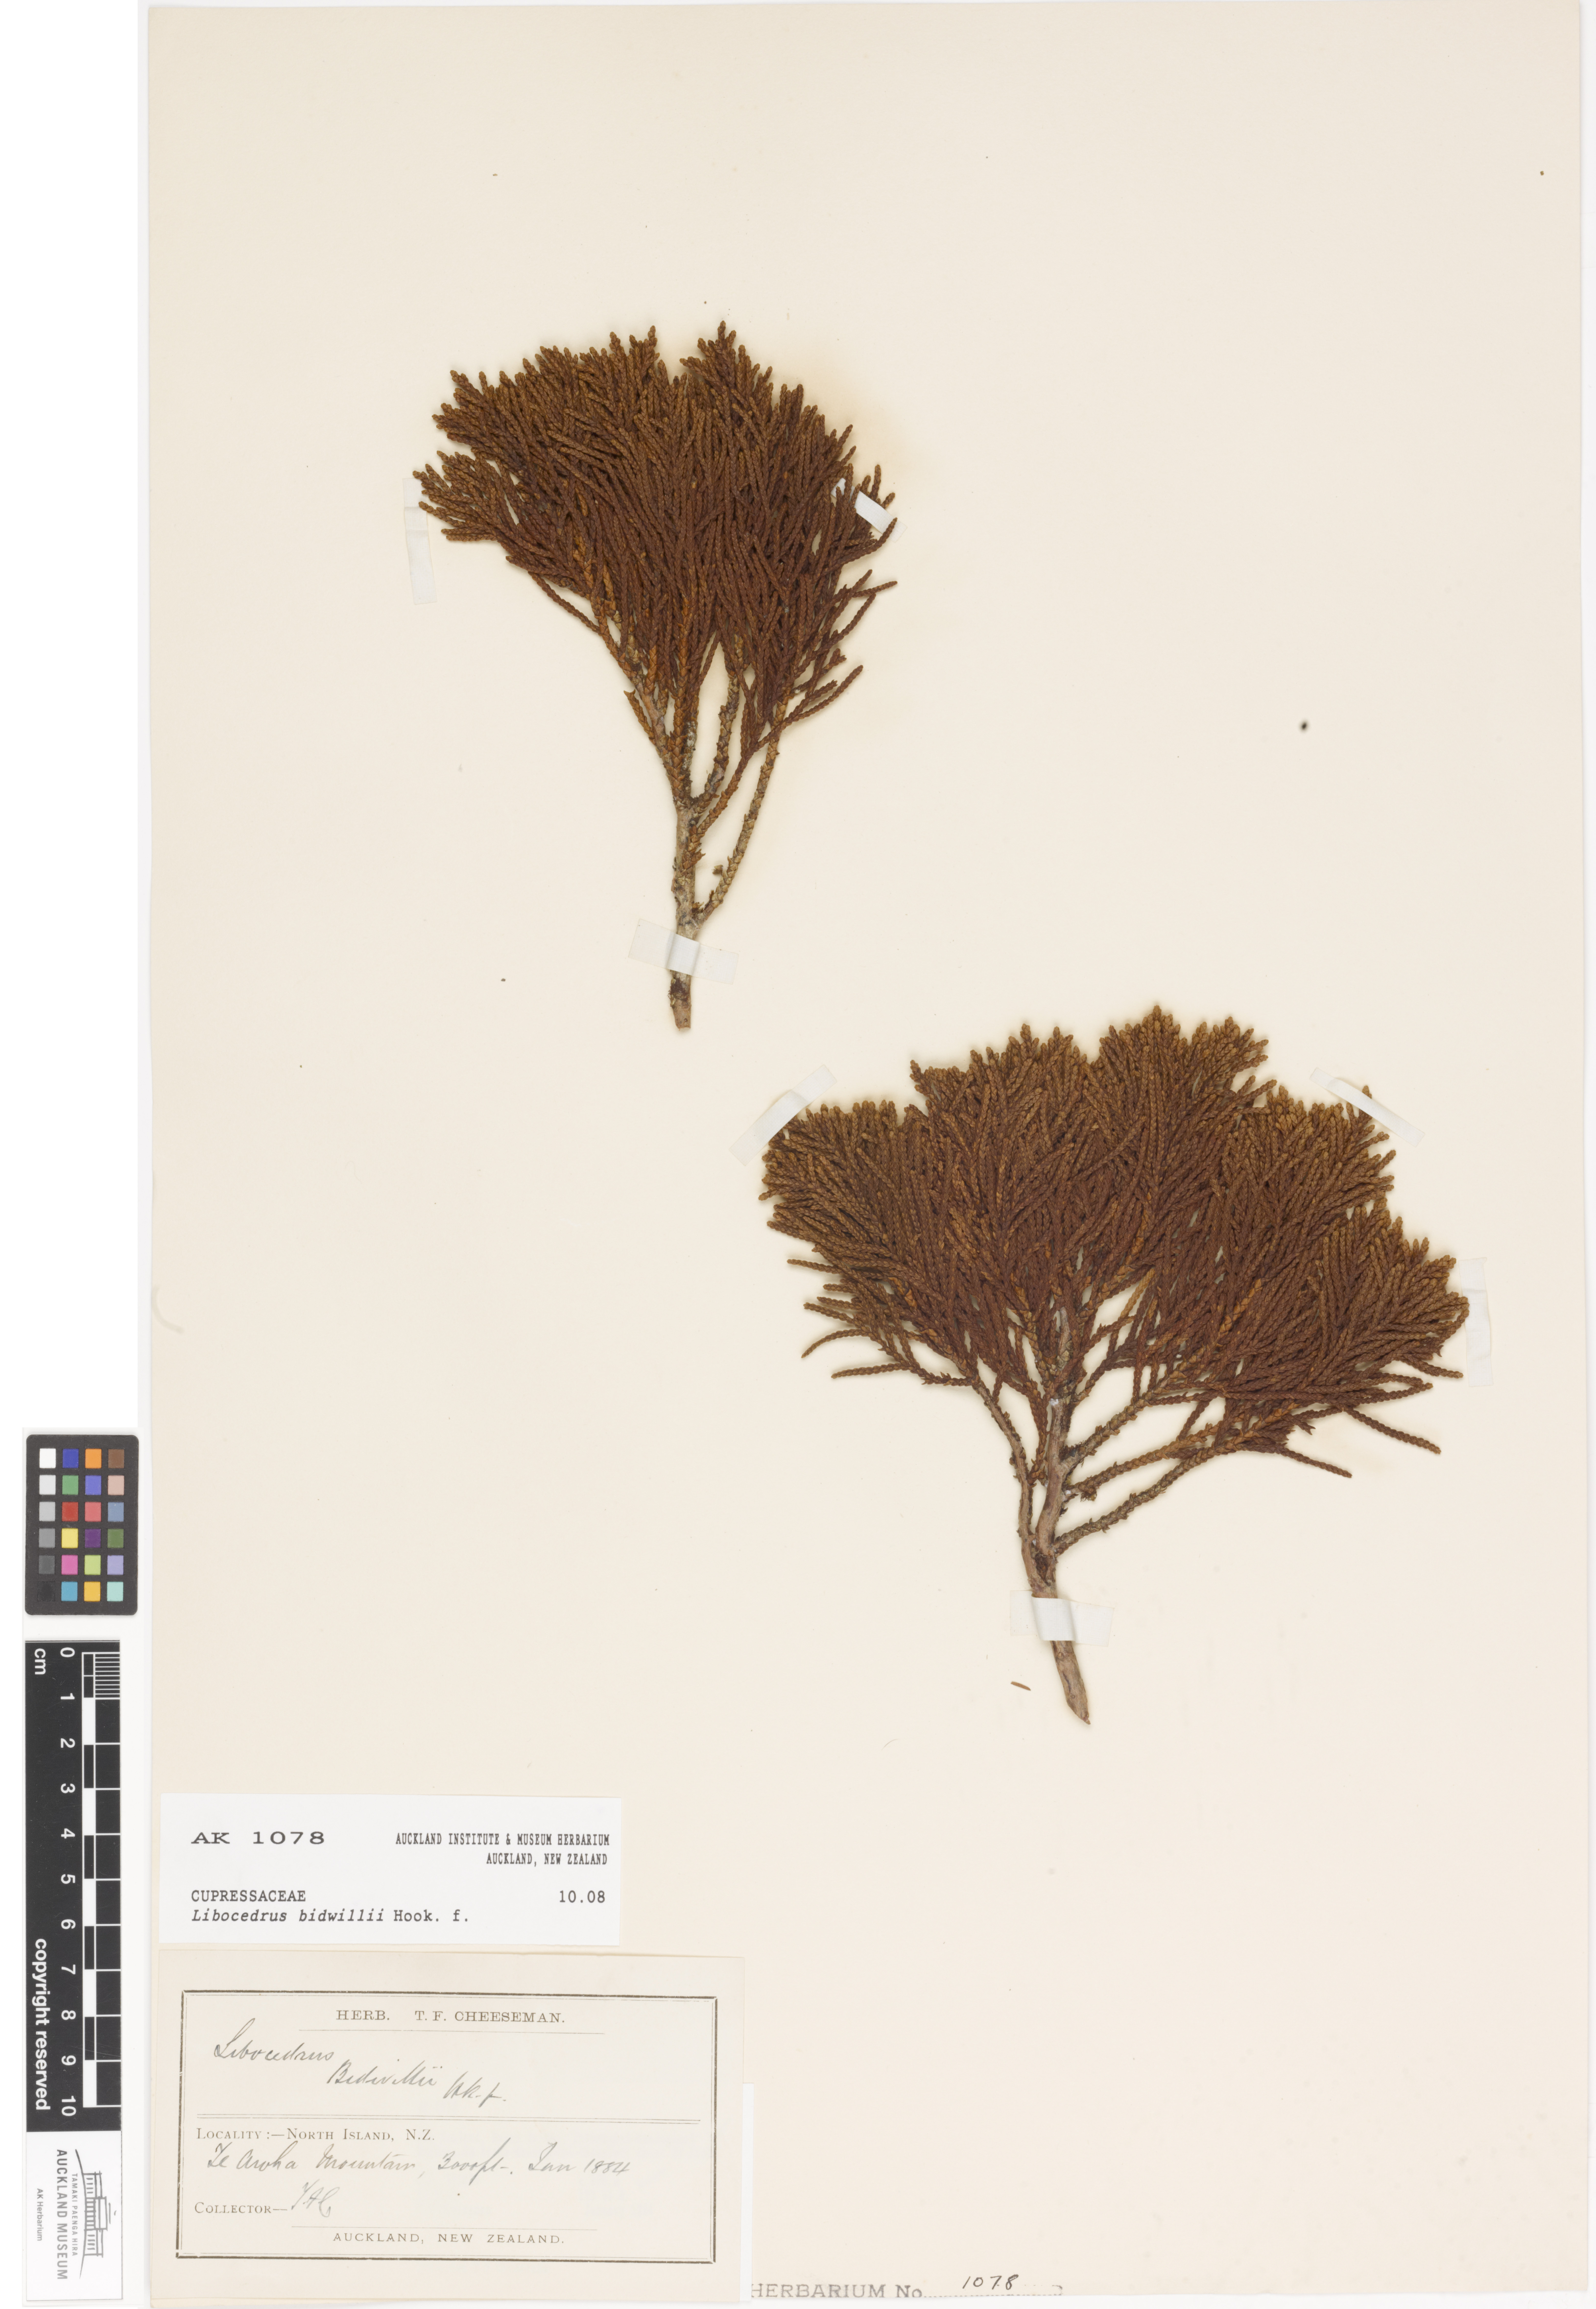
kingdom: Plantae
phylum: Tracheophyta
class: Pinopsida
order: Pinales
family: Cupressaceae
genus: Libocedrus
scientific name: Libocedrus bidwillii
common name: Cedar
